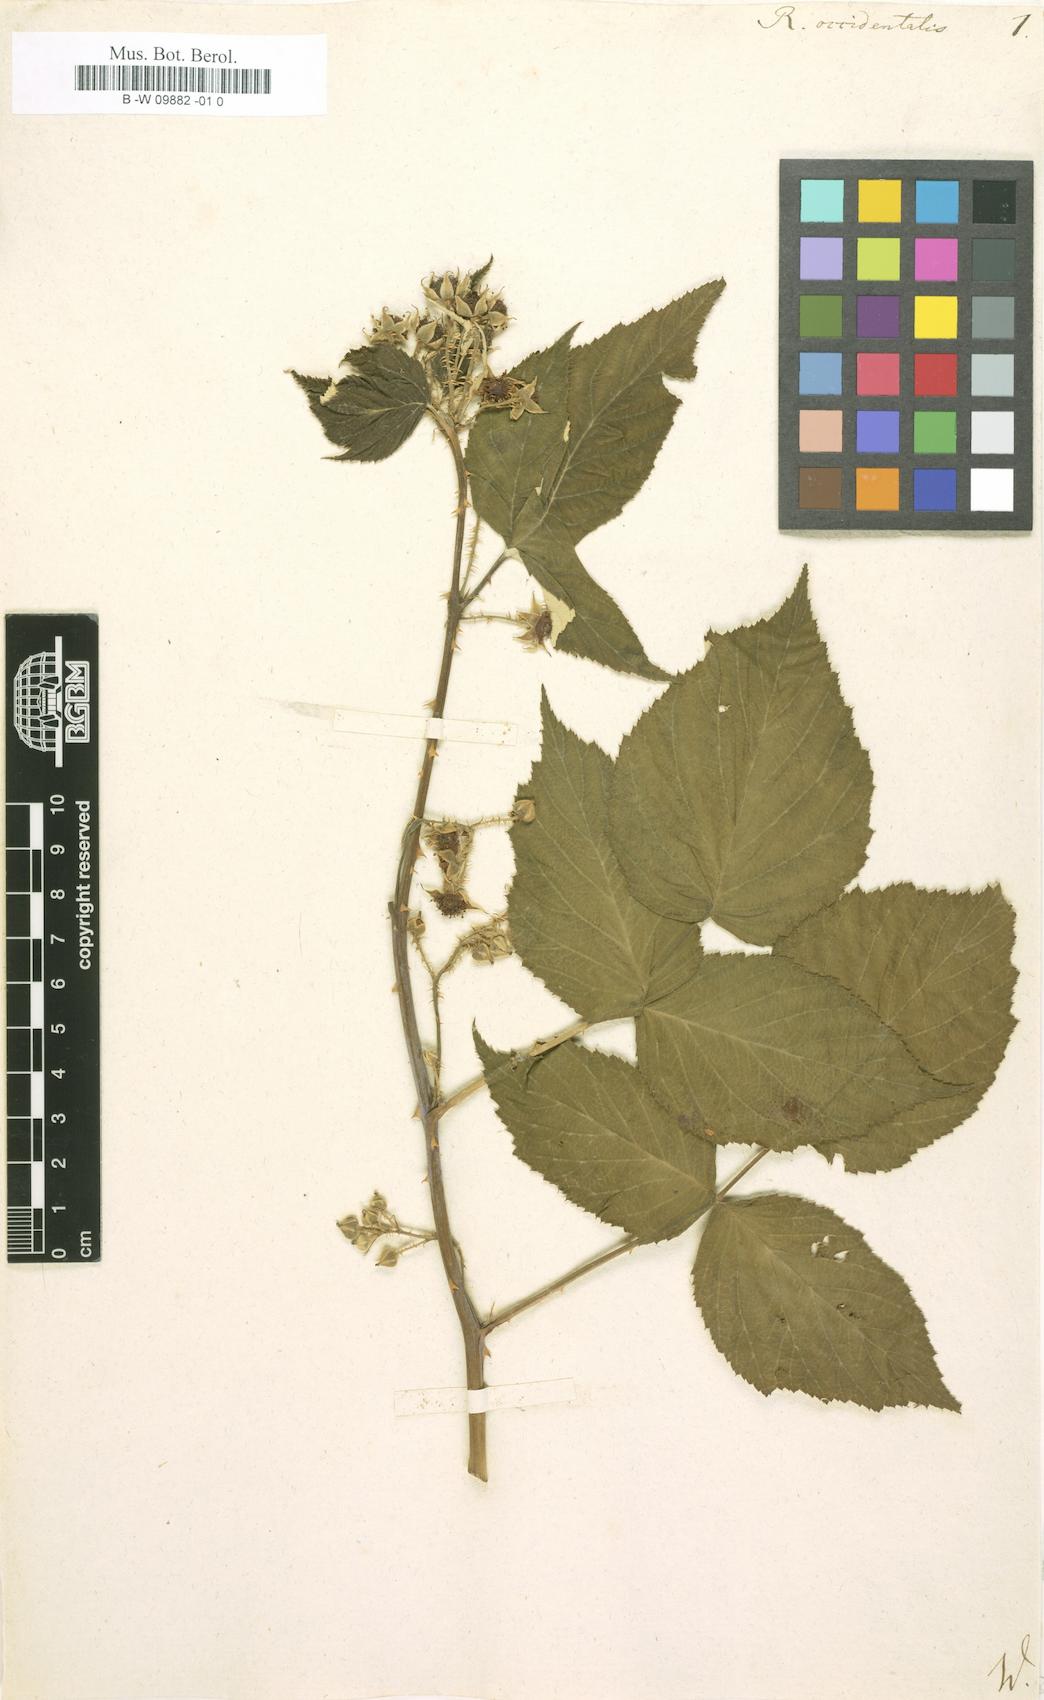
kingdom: Plantae
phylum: Tracheophyta
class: Magnoliopsida
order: Rosales
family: Rosaceae
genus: Rubus
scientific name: Rubus occidentalis
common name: Black raspberry
